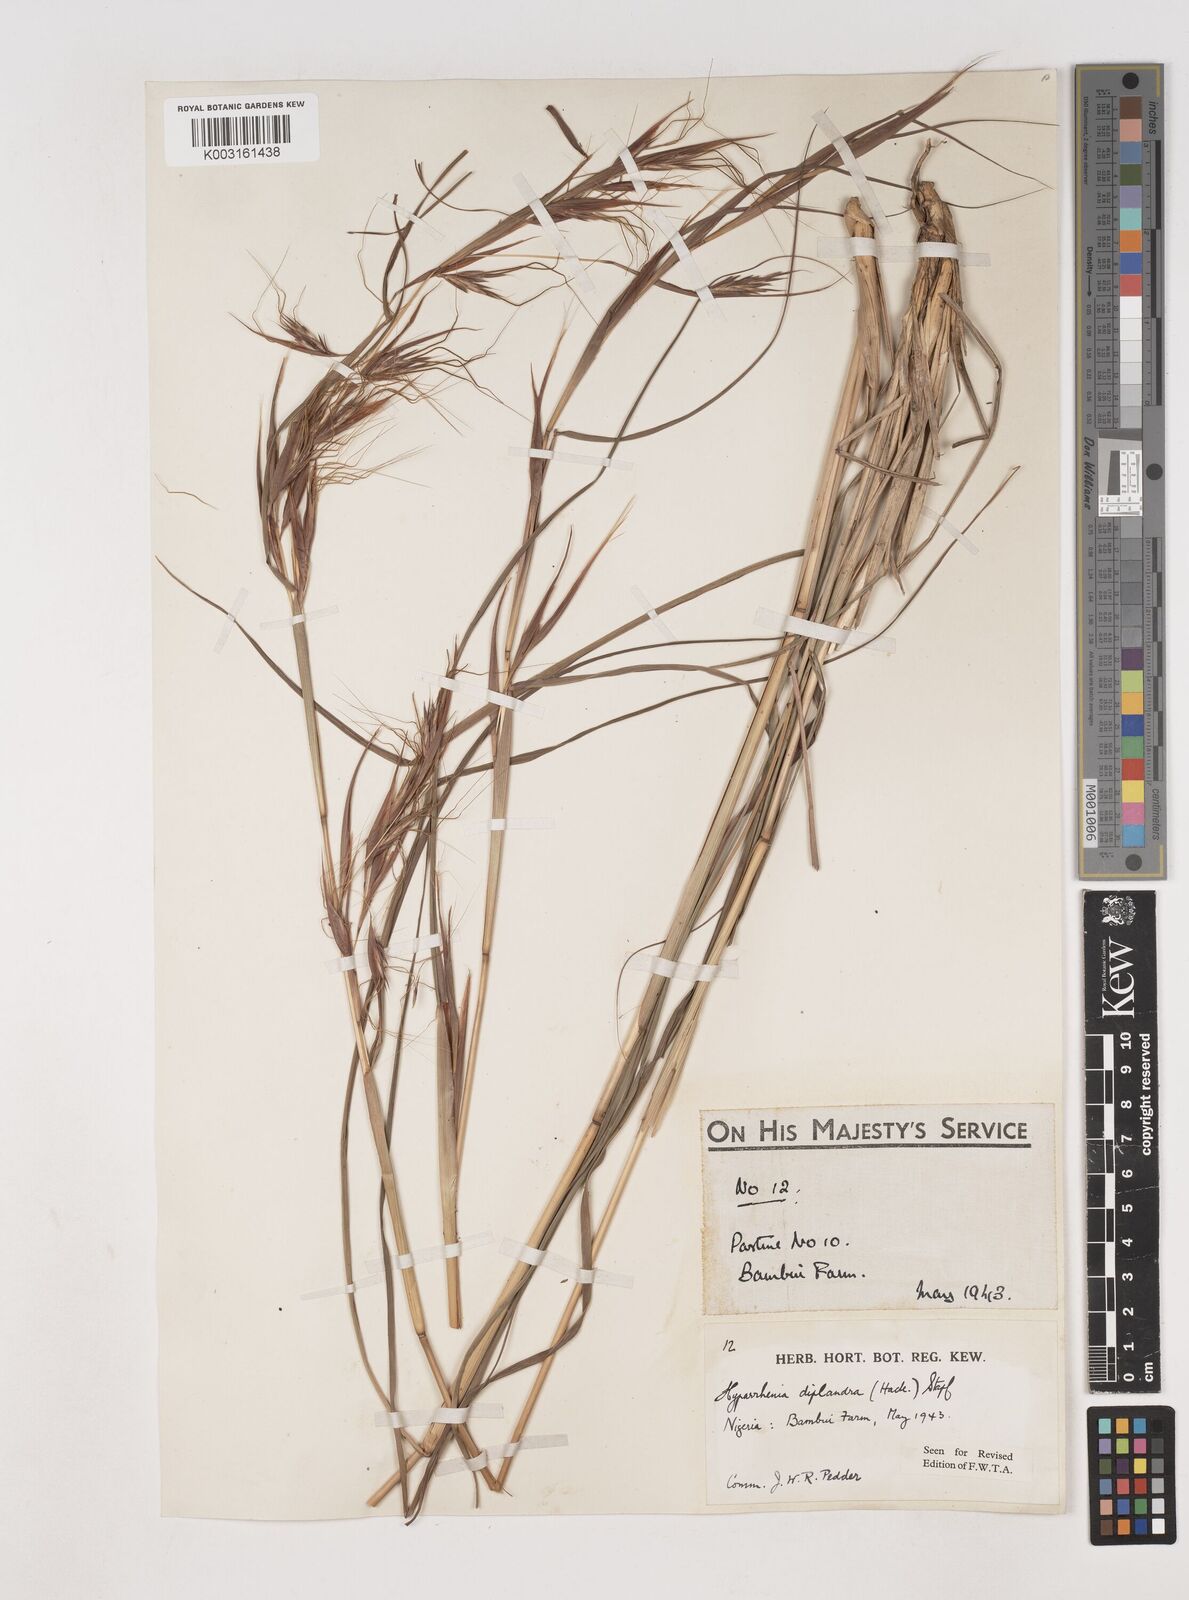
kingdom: Plantae
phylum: Tracheophyta
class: Liliopsida
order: Poales
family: Poaceae
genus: Hyparrhenia
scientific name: Hyparrhenia diplandra
